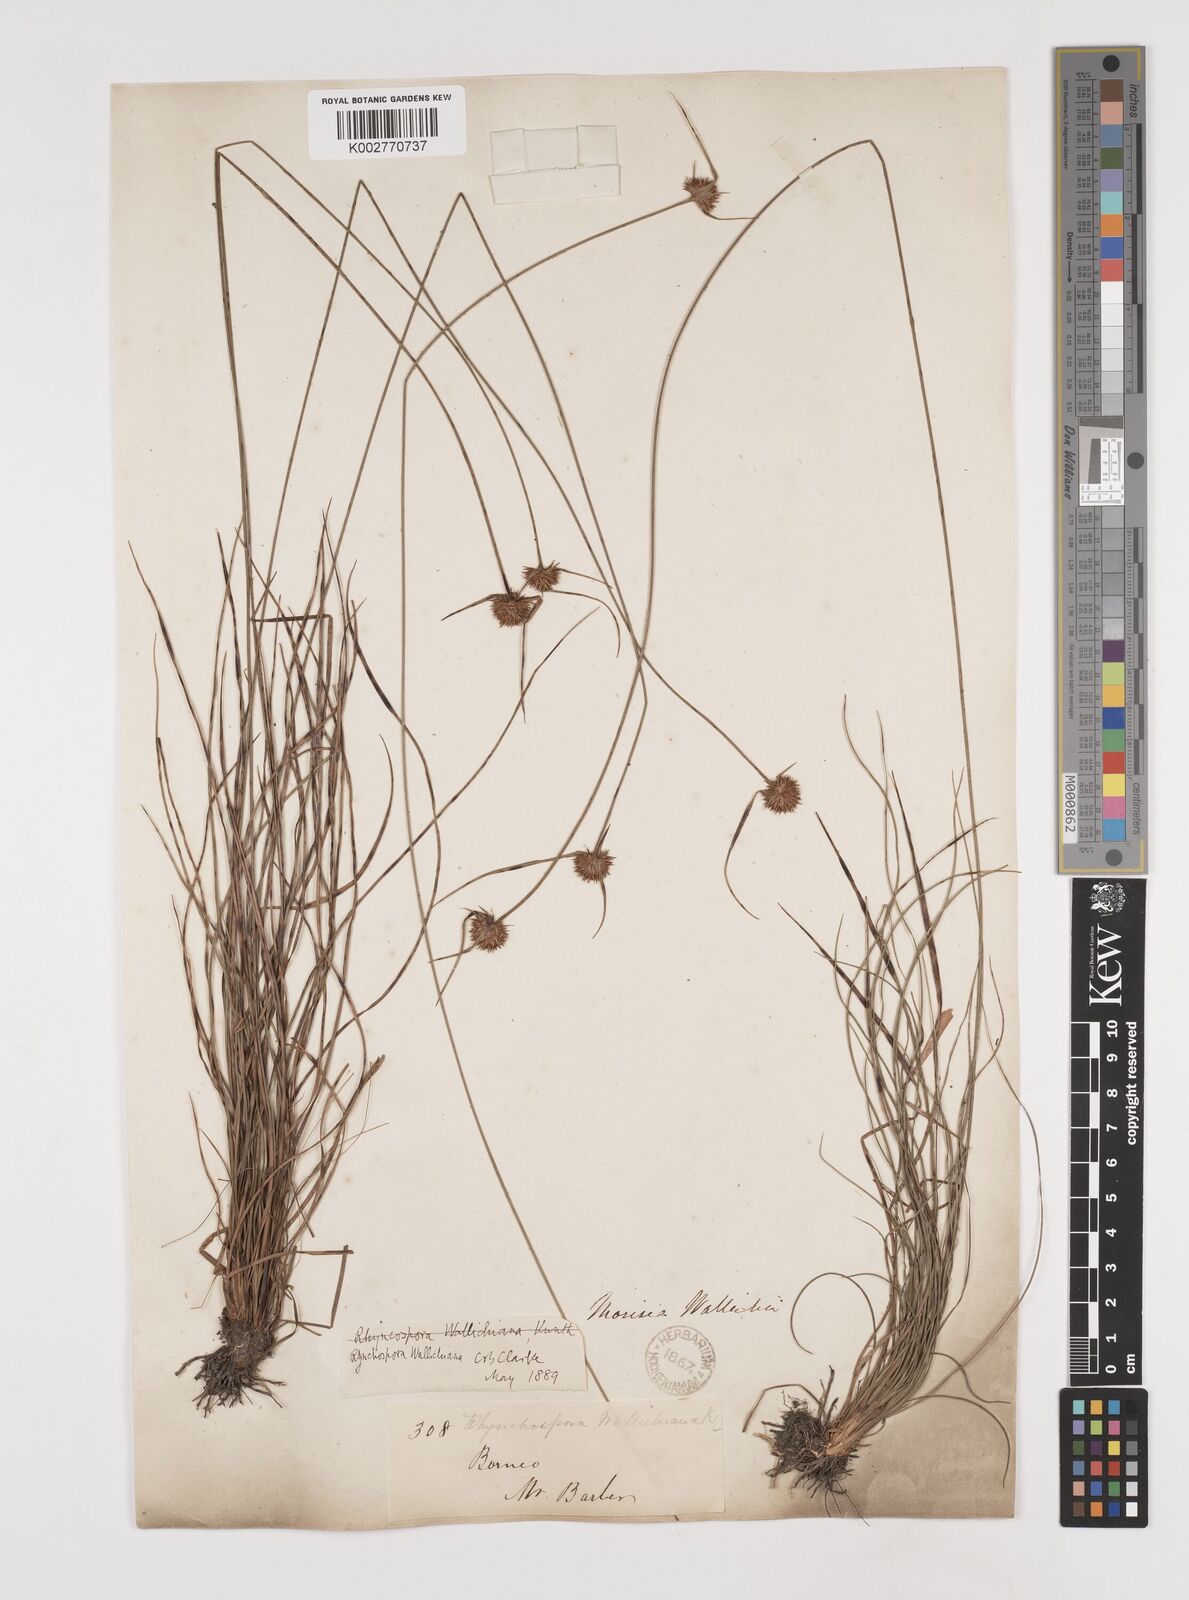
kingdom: Plantae
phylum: Tracheophyta
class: Liliopsida
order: Poales
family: Cyperaceae
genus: Rhynchospora
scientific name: Rhynchospora rubra
